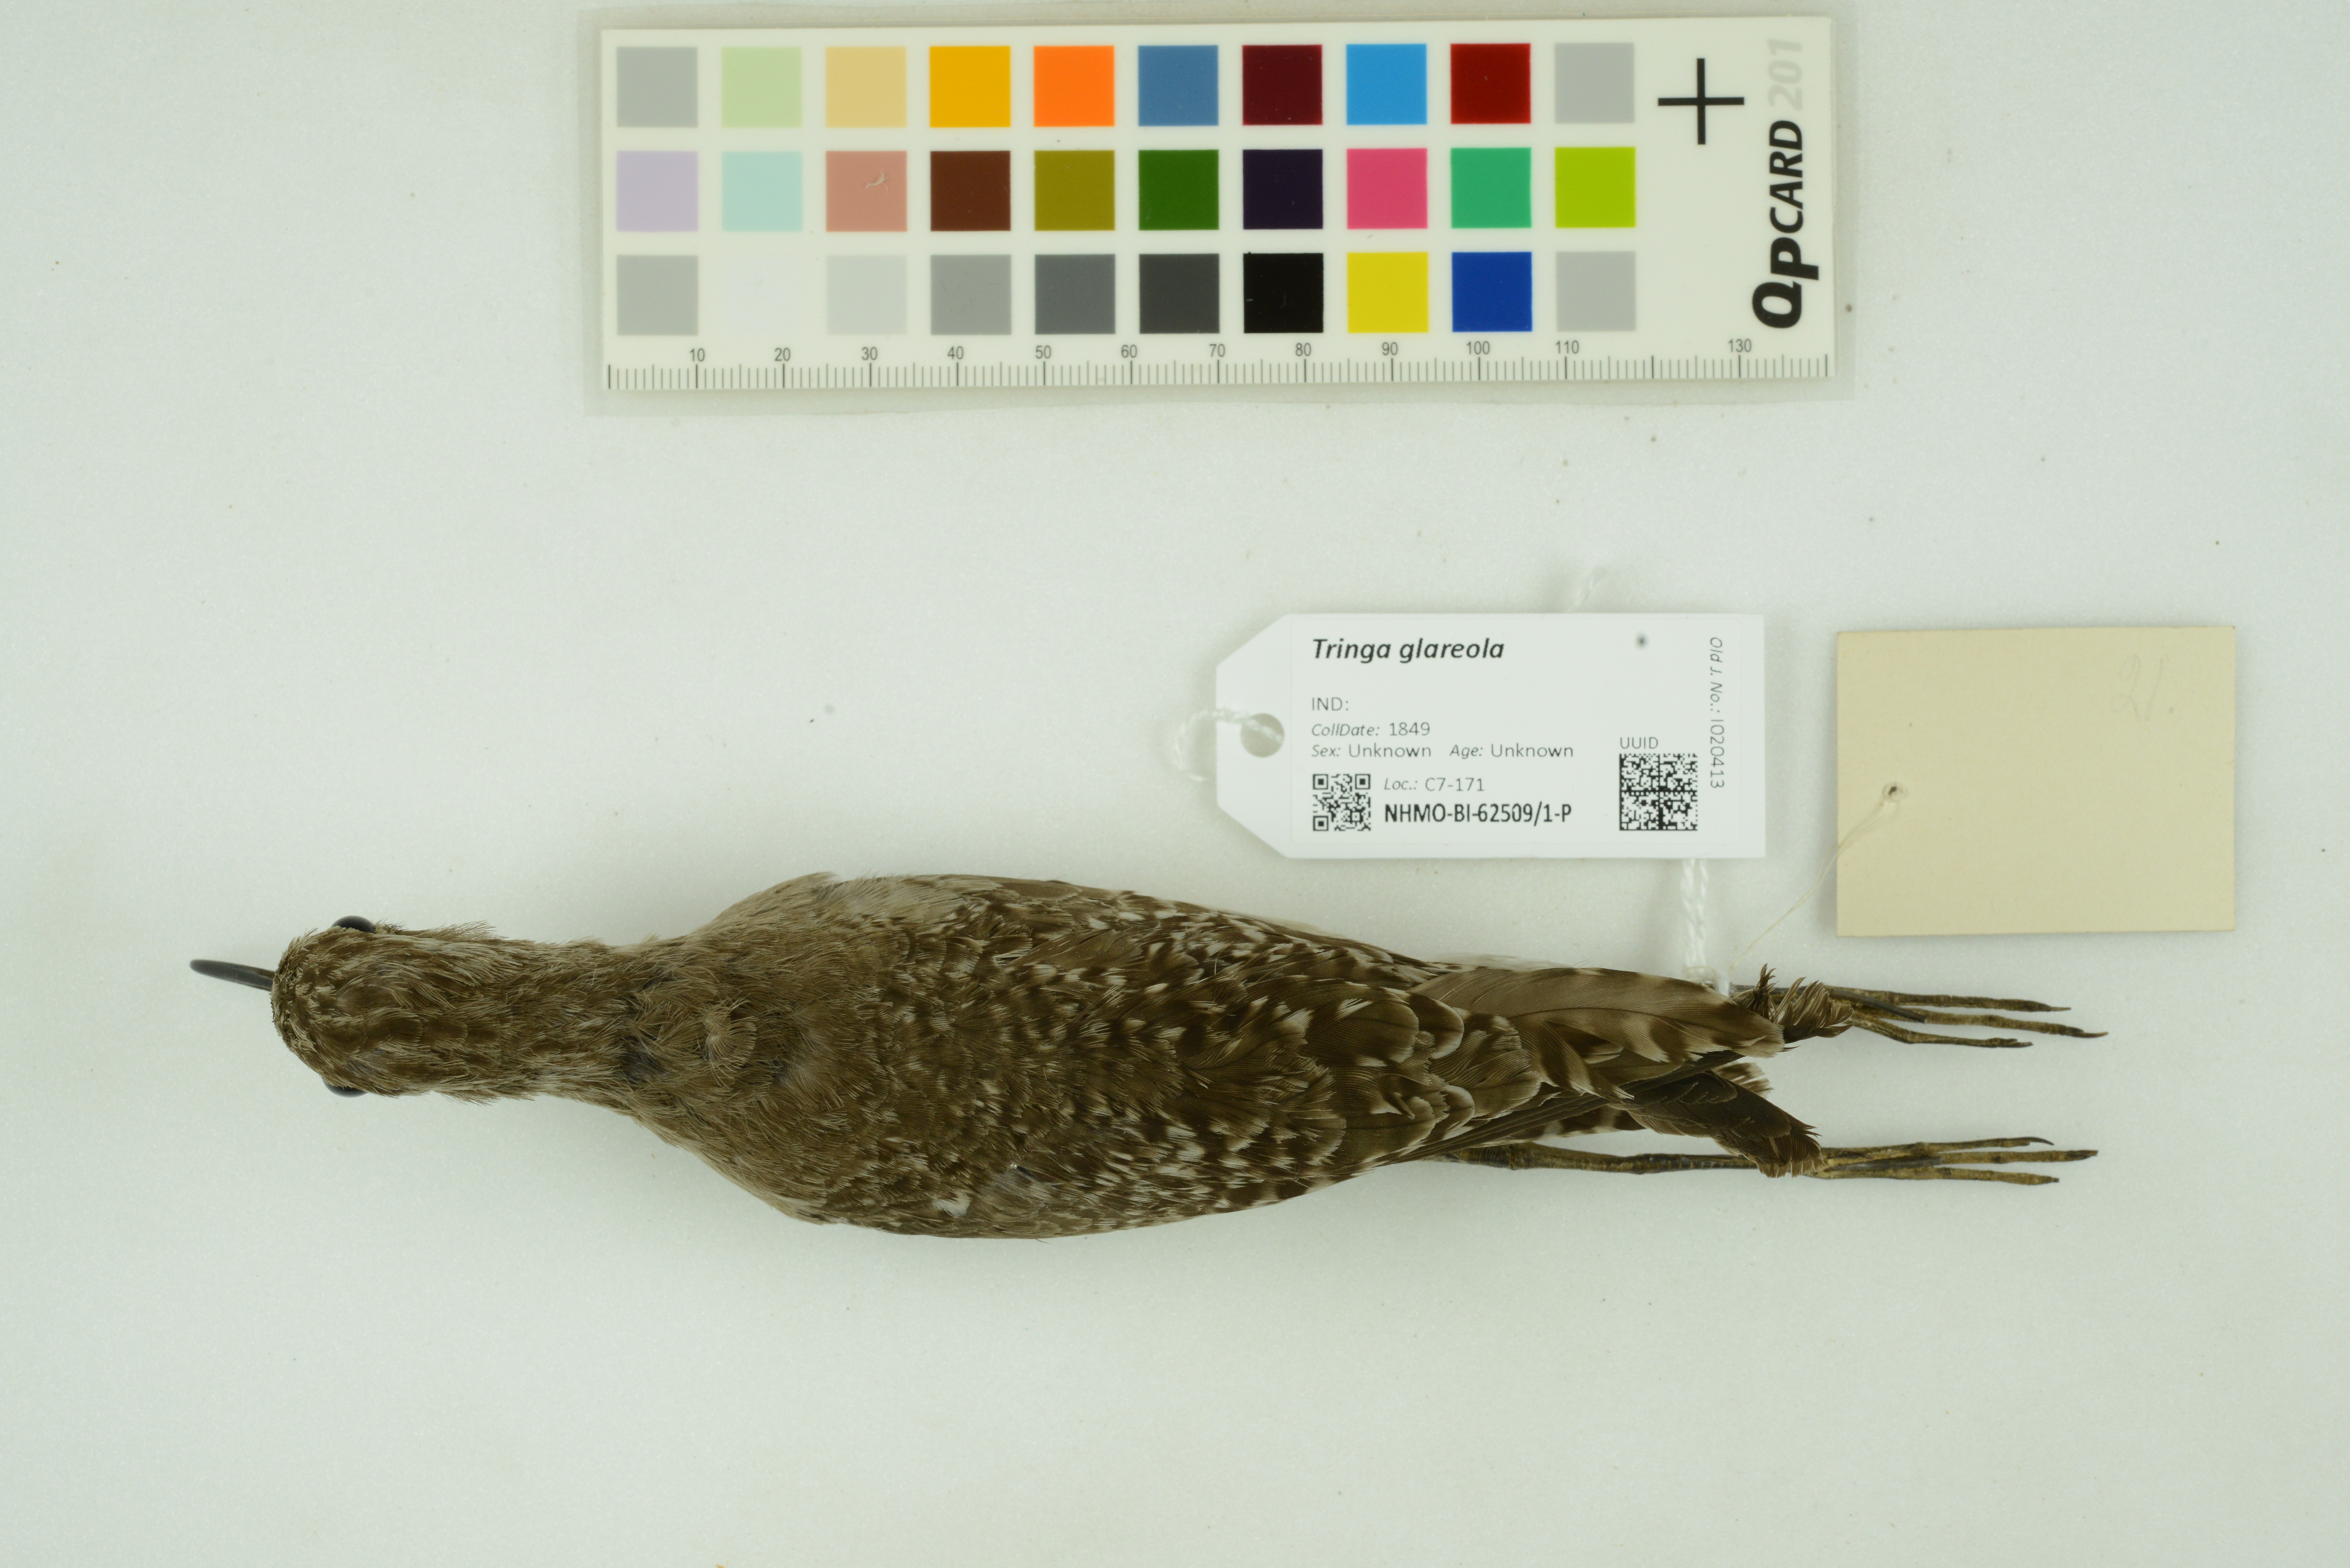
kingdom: Animalia
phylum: Chordata
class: Aves
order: Charadriiformes
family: Scolopacidae
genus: Tringa
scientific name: Tringa glareola
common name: Wood sandpiper
